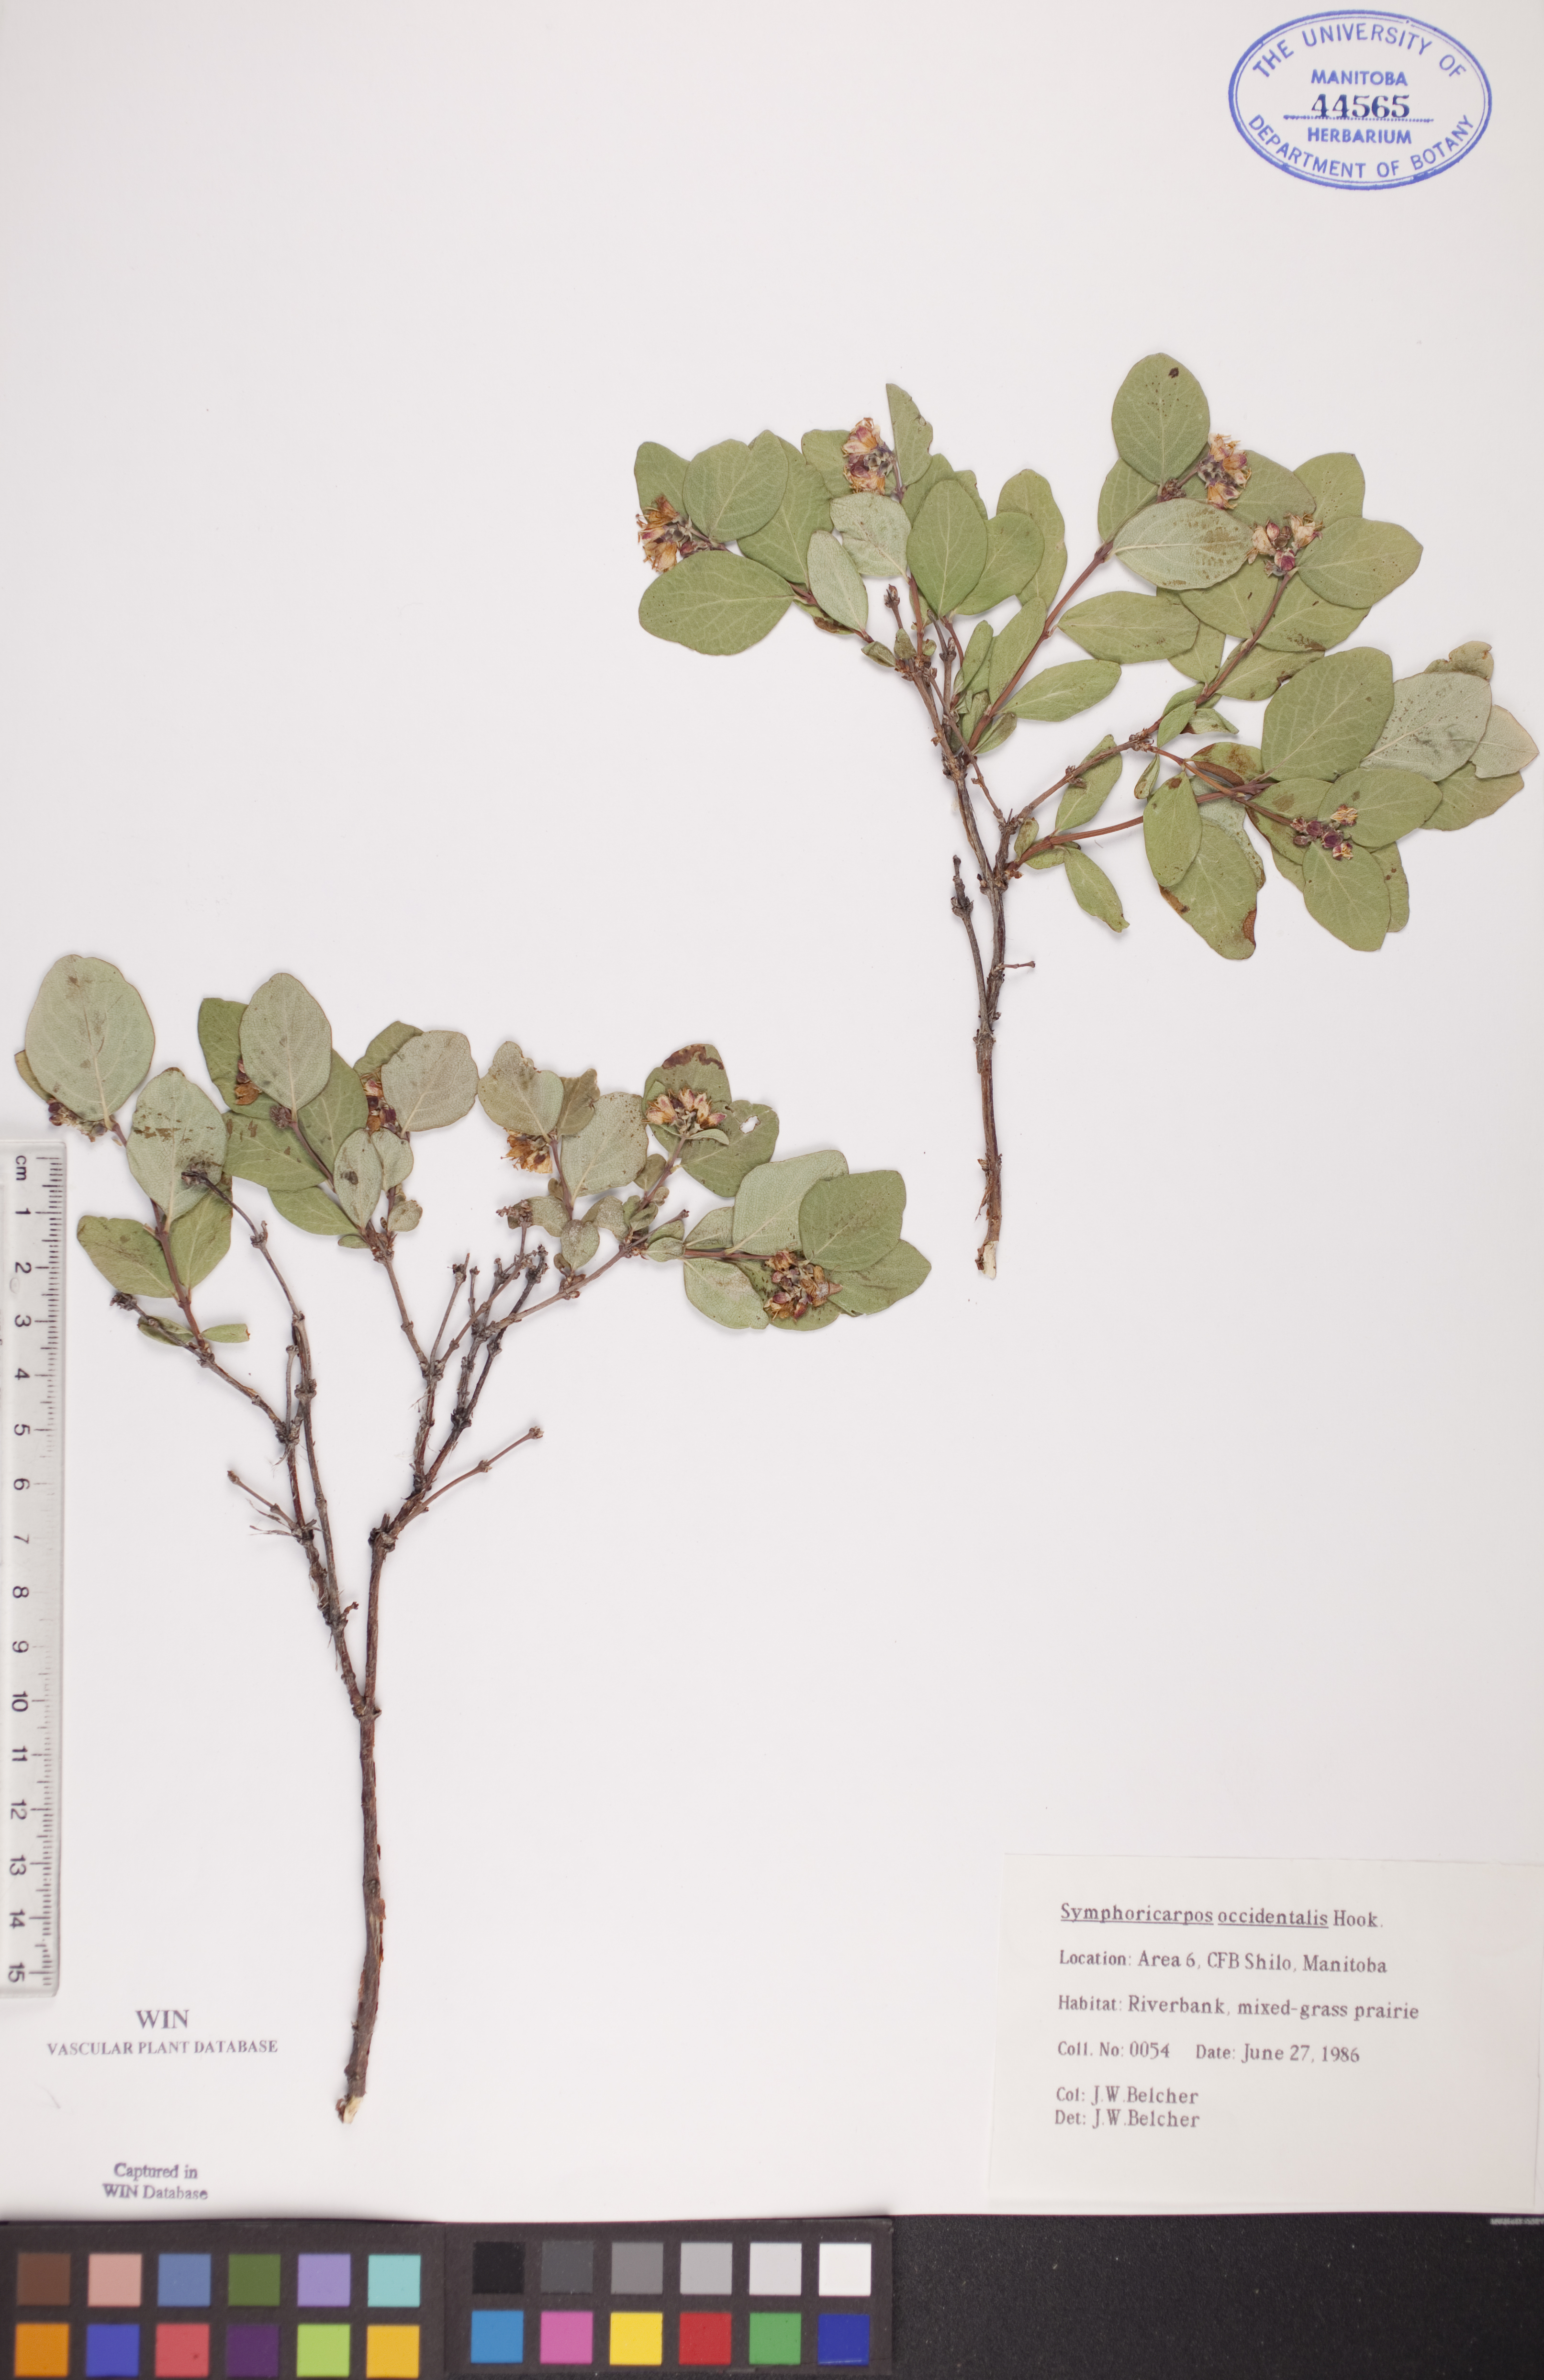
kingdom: Plantae
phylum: Tracheophyta
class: Magnoliopsida
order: Dipsacales
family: Caprifoliaceae
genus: Symphoricarpos
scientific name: Symphoricarpos occidentalis
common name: Wolfberry
